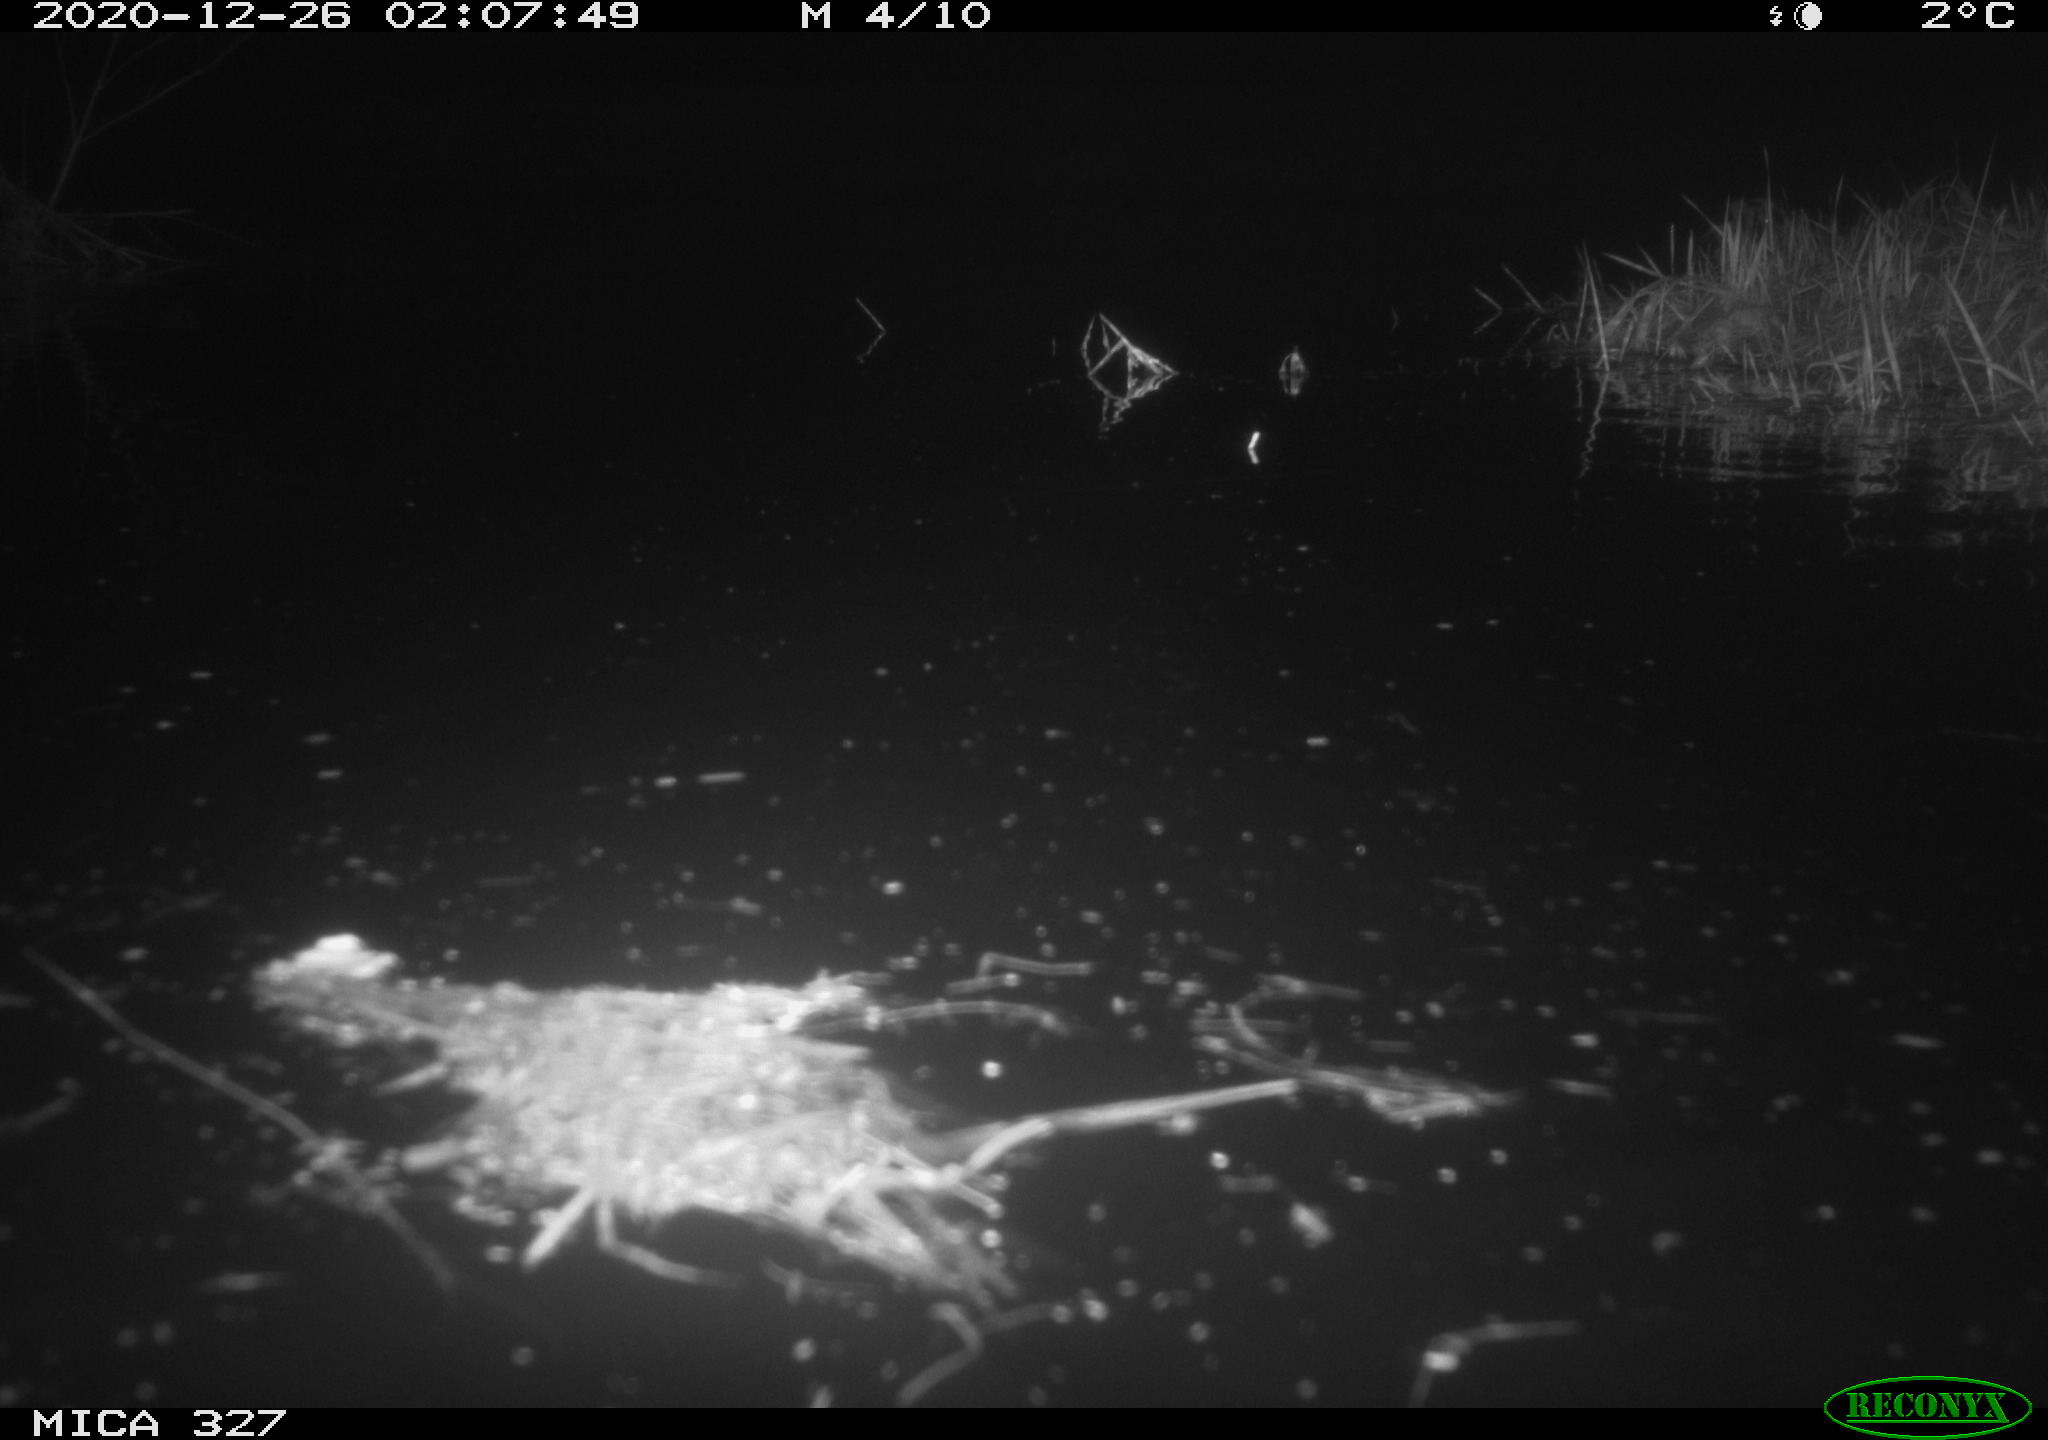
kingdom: Animalia
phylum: Chordata
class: Mammalia
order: Rodentia
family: Cricetidae
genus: Ondatra
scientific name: Ondatra zibethicus
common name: Muskrat
